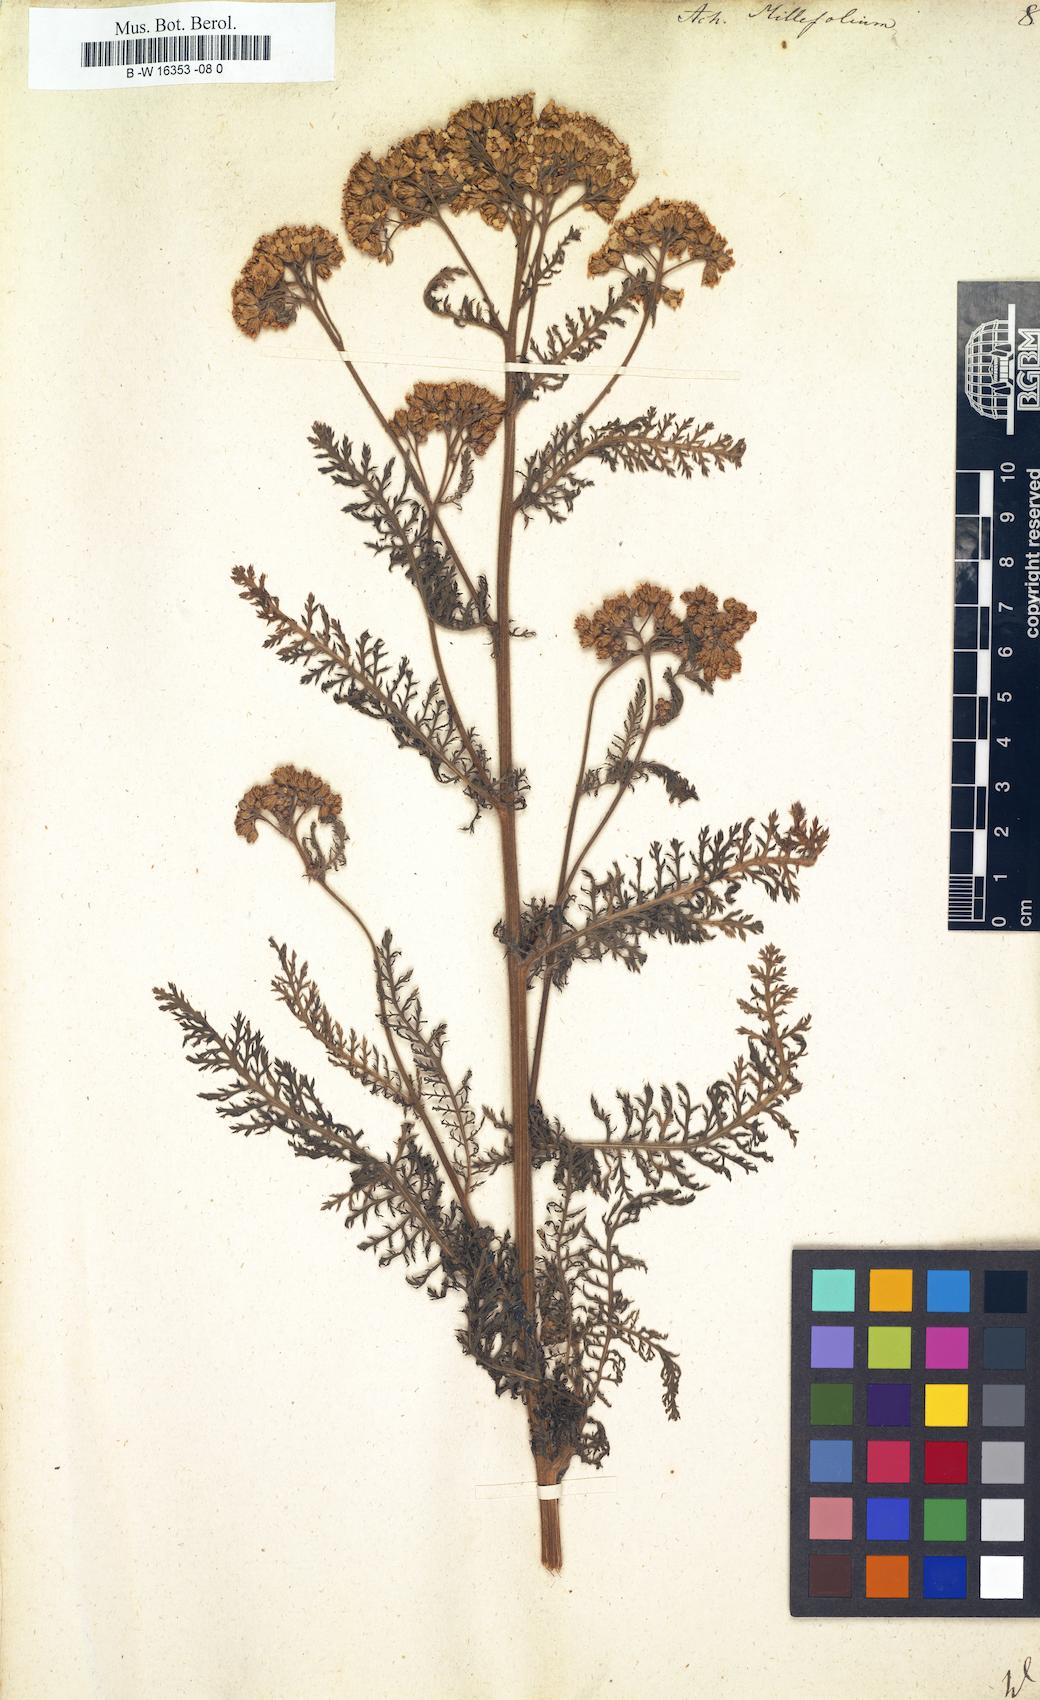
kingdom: Plantae
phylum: Tracheophyta
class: Magnoliopsida
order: Asterales
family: Asteraceae
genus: Achillea
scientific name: Achillea millefolium
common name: Yarrow
